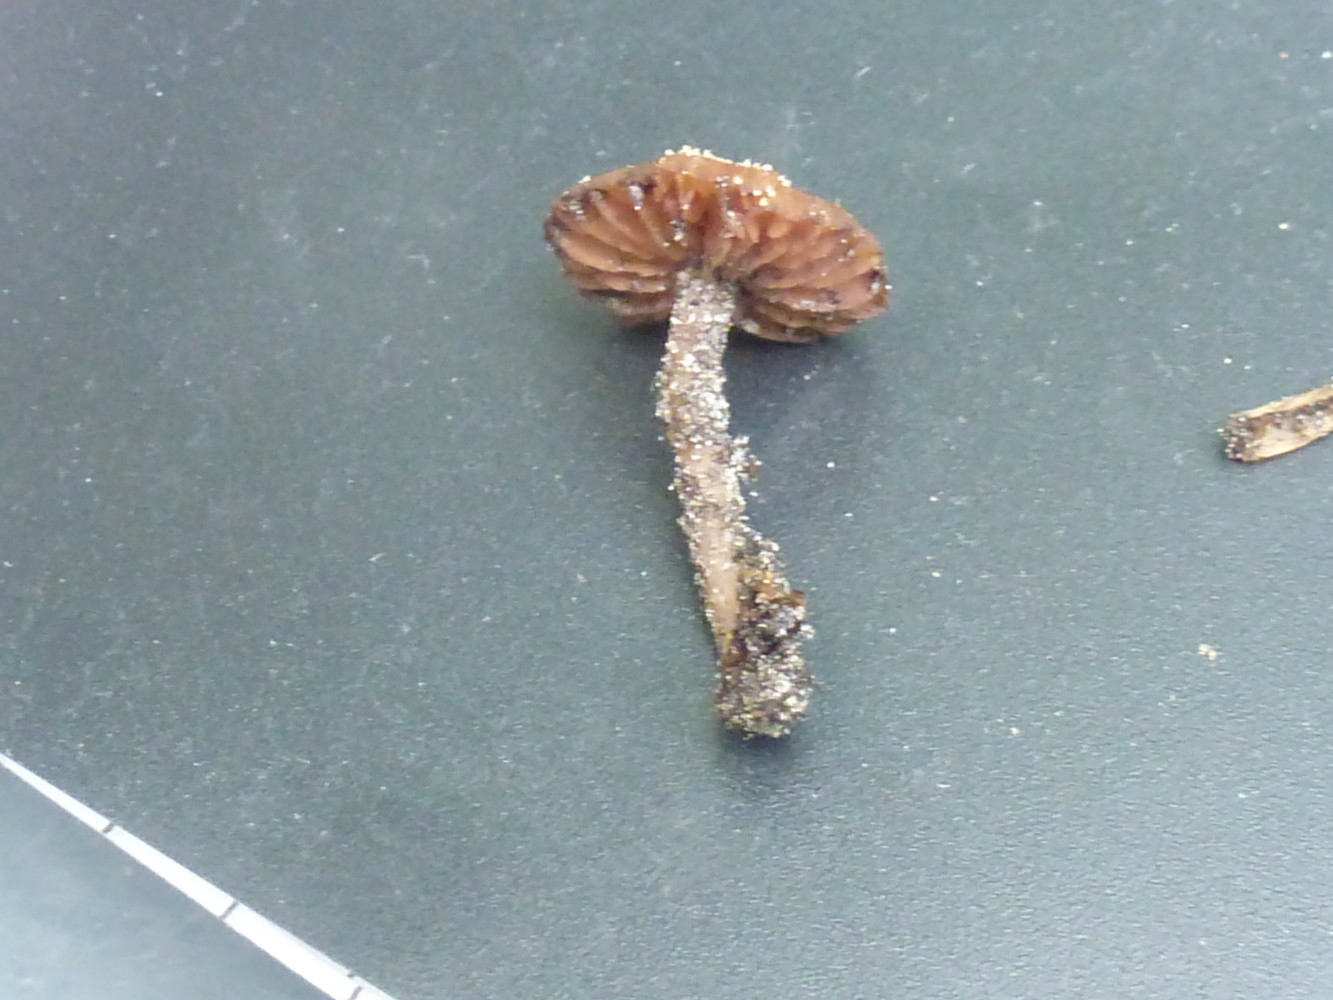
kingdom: Fungi
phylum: Basidiomycota
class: Agaricomycetes
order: Agaricales
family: Hydnangiaceae
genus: Laccaria
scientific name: Laccaria
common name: ametysthat
